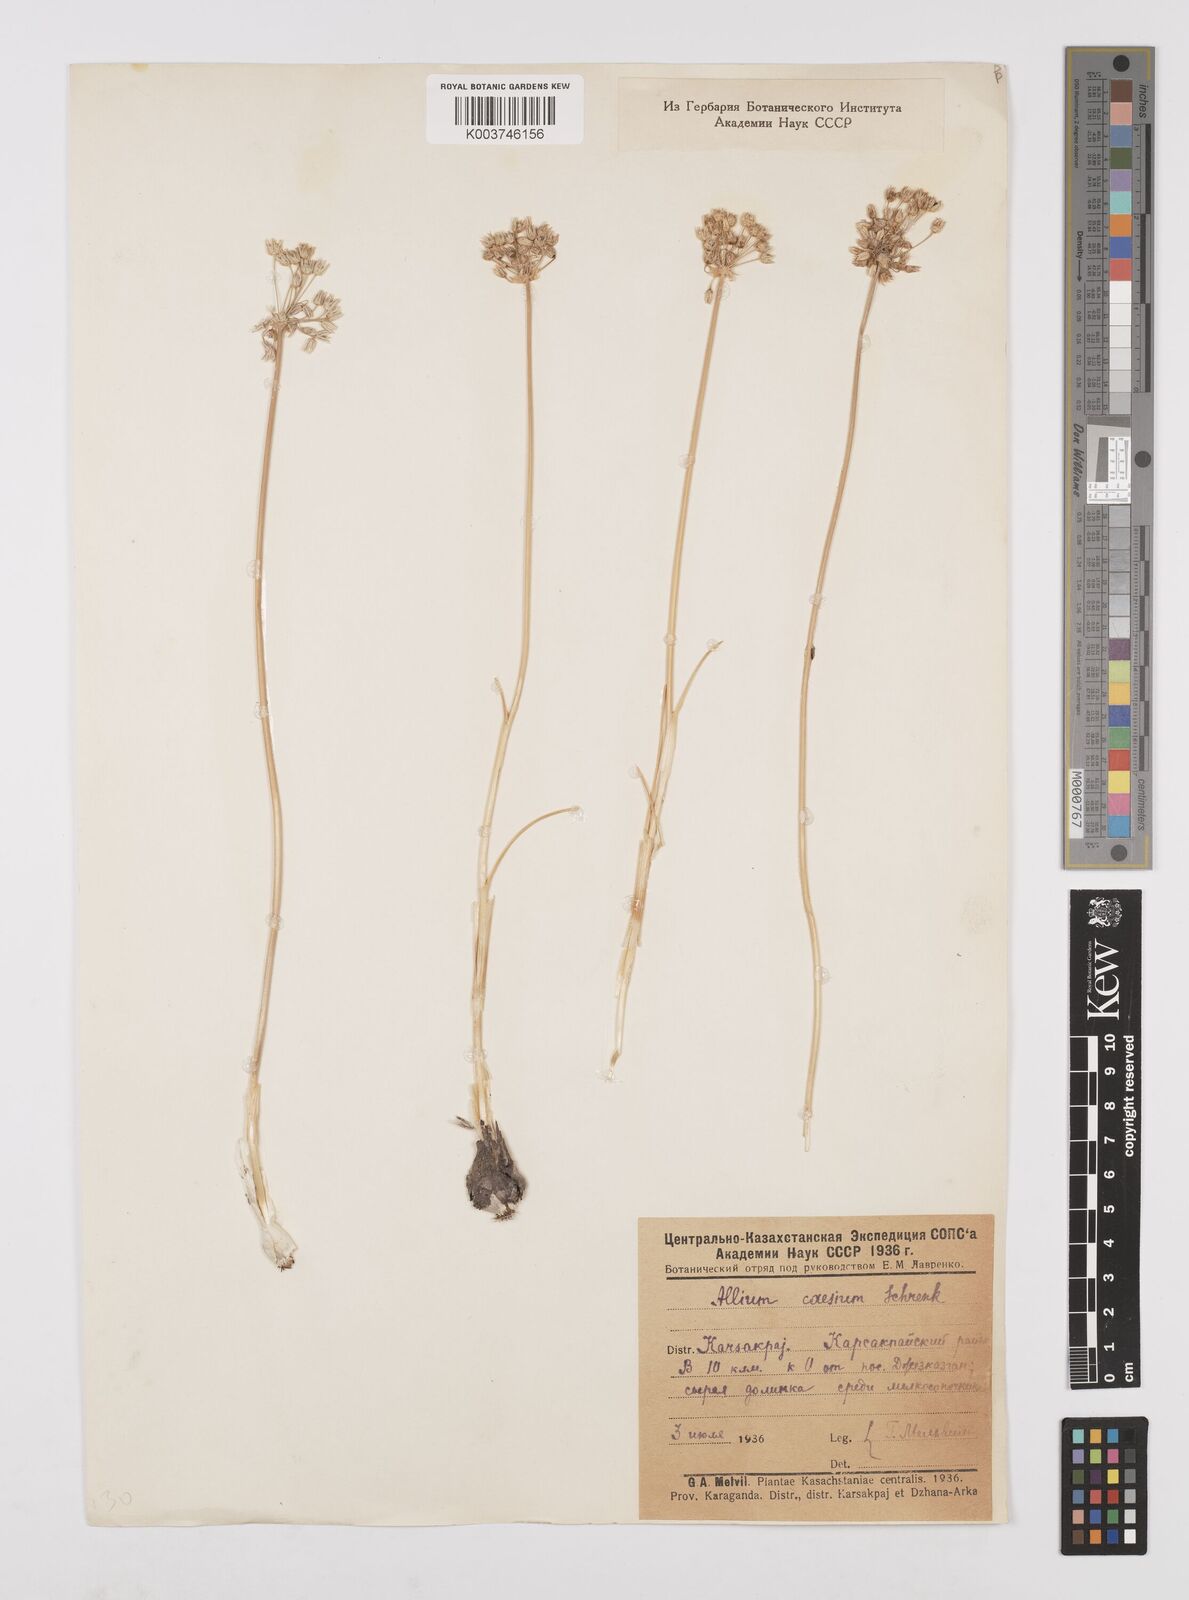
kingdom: Plantae
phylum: Tracheophyta
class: Liliopsida
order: Asparagales
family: Amaryllidaceae
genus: Allium
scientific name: Allium caesium
